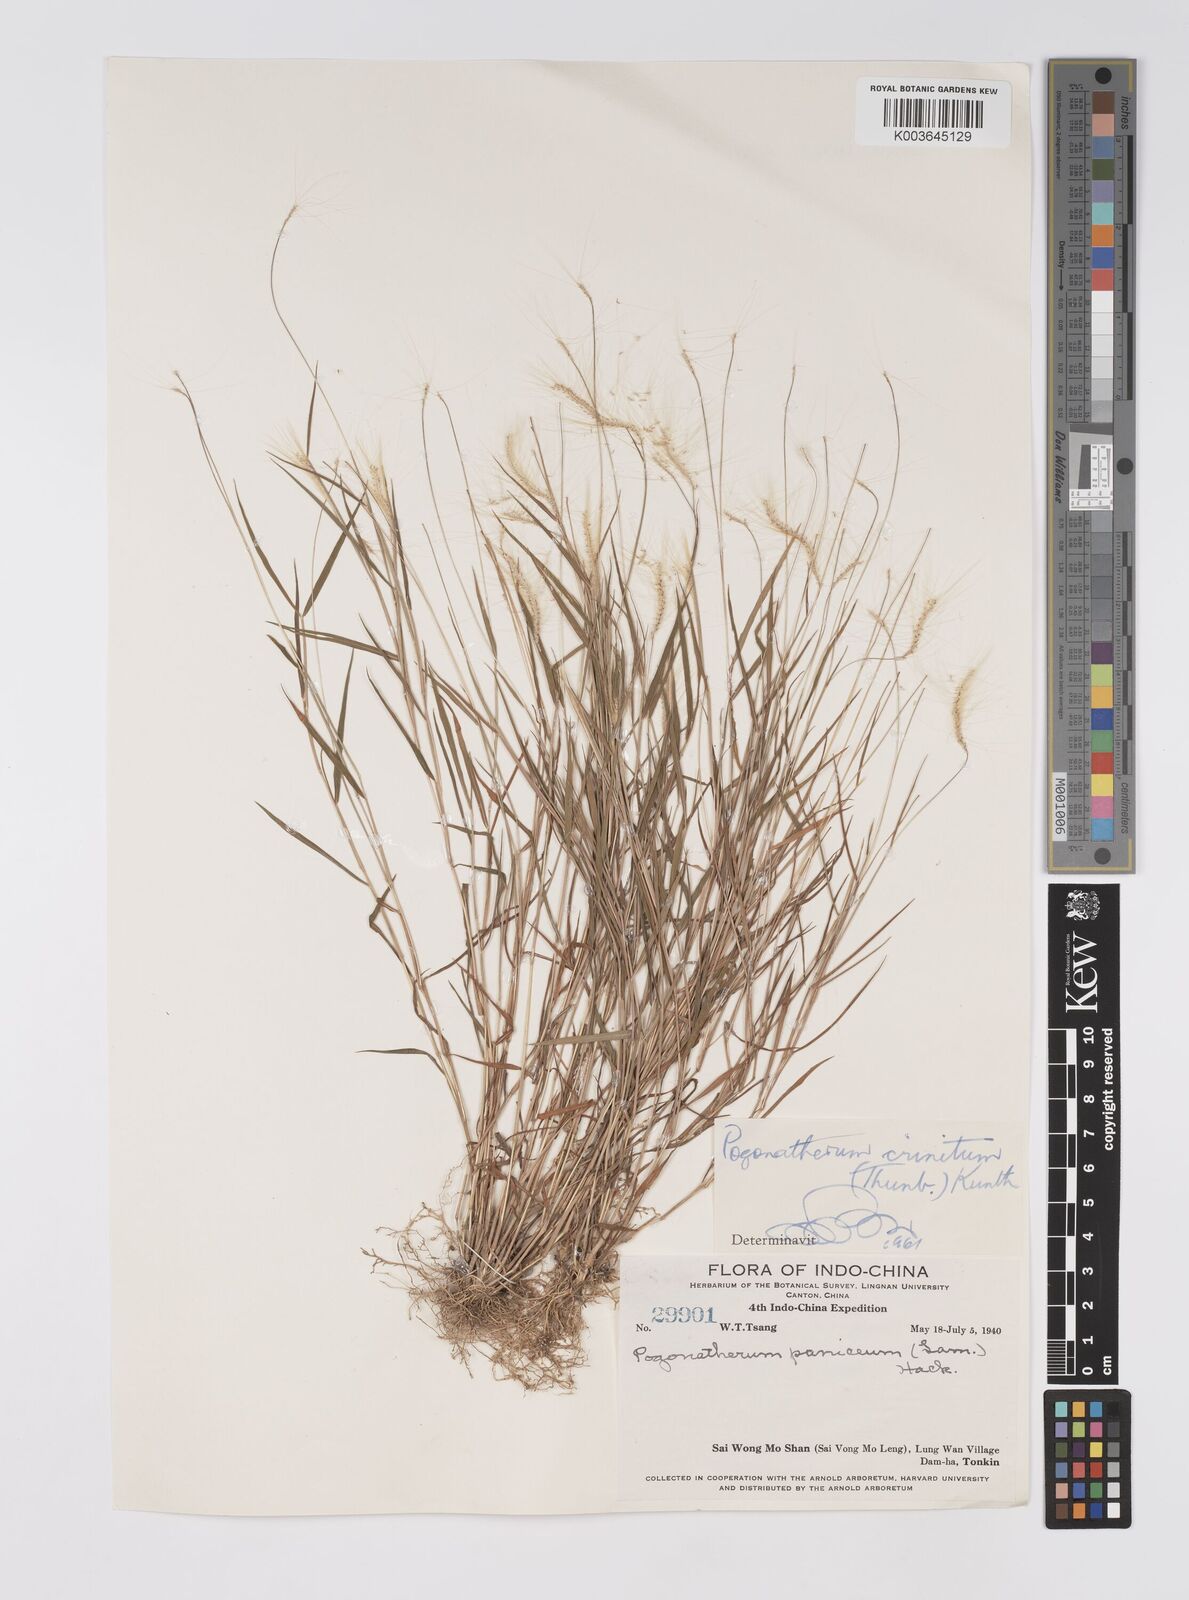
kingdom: Plantae
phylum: Tracheophyta
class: Liliopsida
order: Poales
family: Poaceae
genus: Pogonatherum
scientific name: Pogonatherum crinitum
